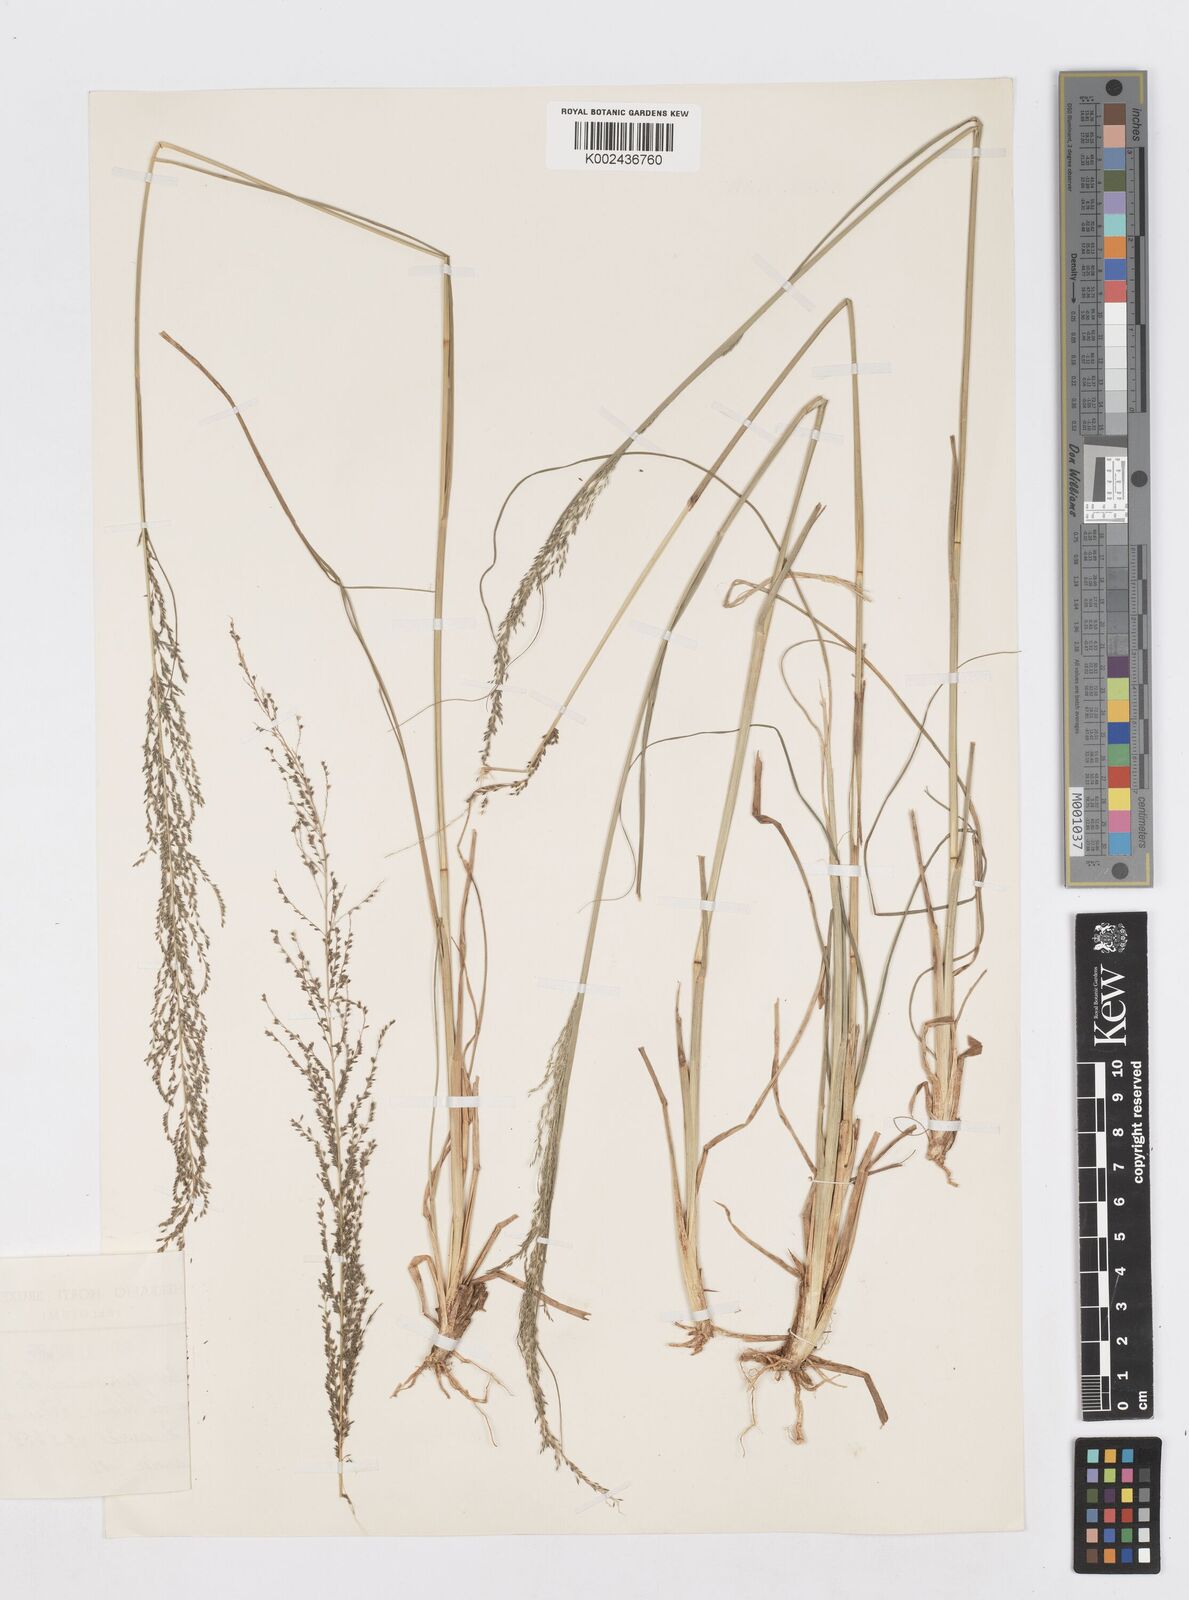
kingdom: Plantae
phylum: Tracheophyta
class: Liliopsida
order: Poales
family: Poaceae
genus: Sporobolus
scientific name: Sporobolus pyramidalis
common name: West indian dropseed
